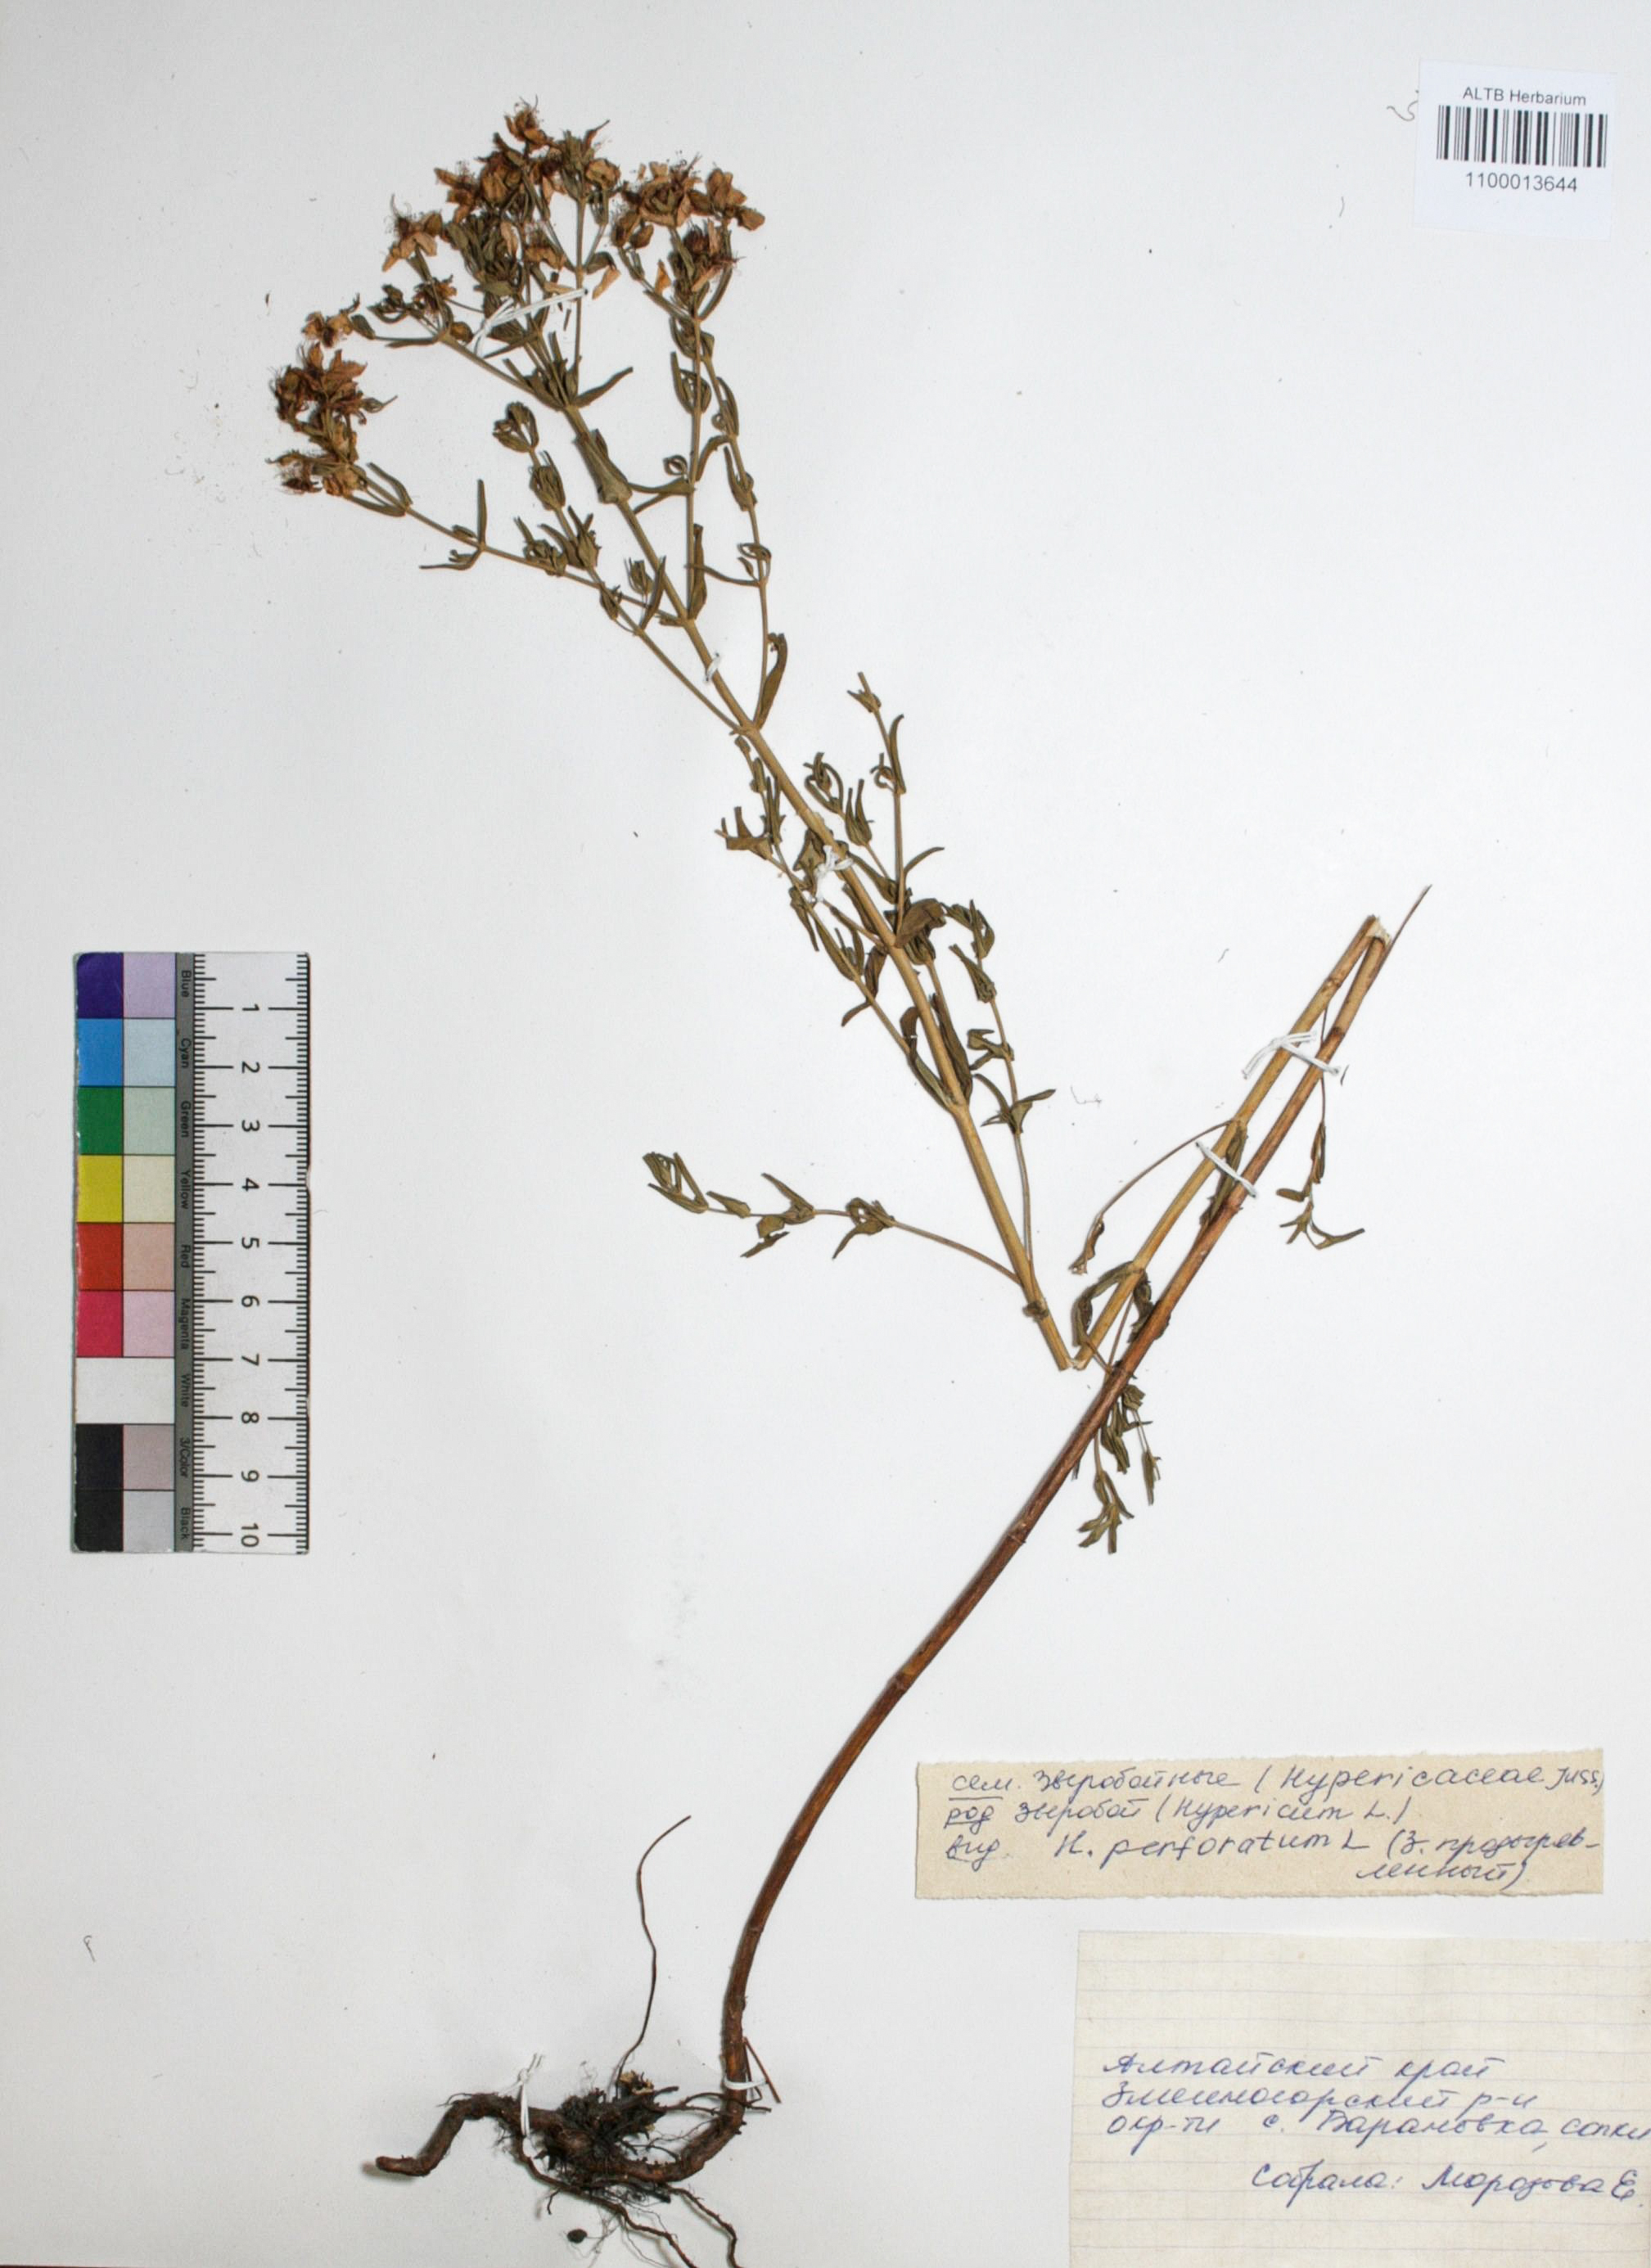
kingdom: Plantae
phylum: Tracheophyta
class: Magnoliopsida
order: Malpighiales
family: Hypericaceae
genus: Hypericum
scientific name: Hypericum perforatum
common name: Common st. johnswort
